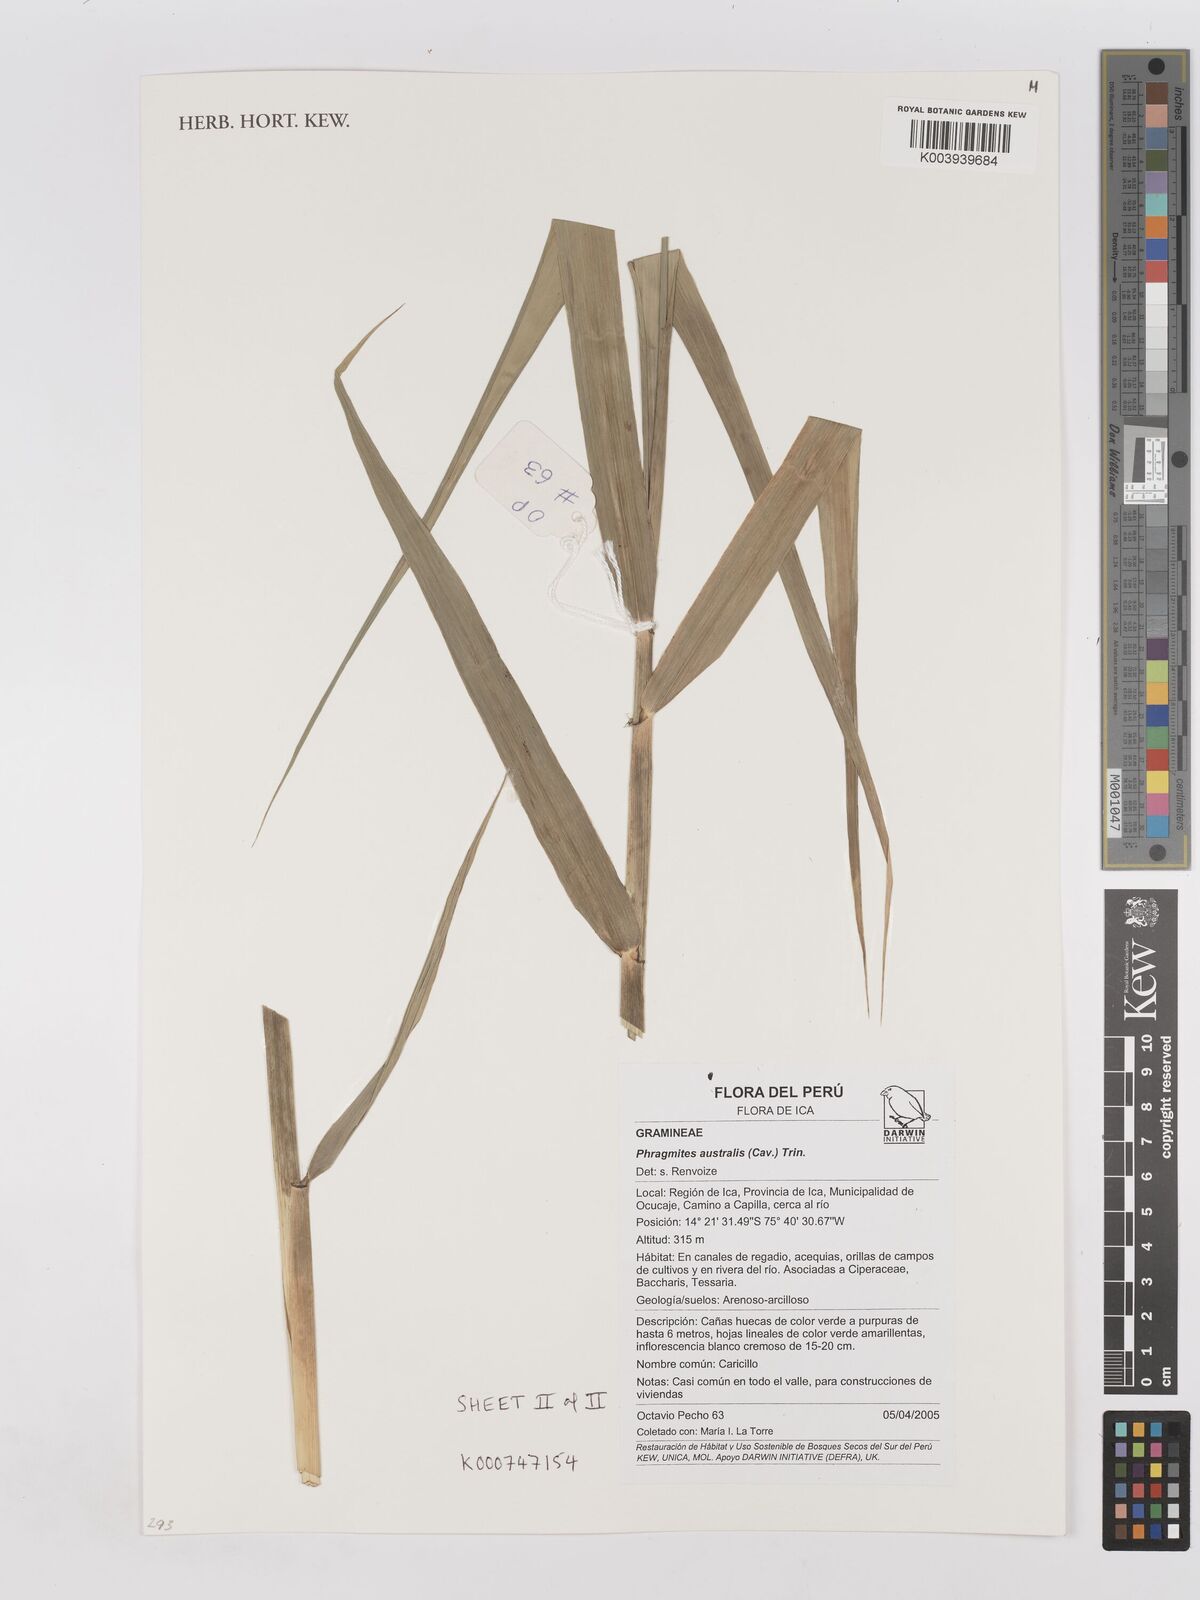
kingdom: Plantae
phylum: Tracheophyta
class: Liliopsida
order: Poales
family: Poaceae
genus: Phragmites
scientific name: Phragmites australis
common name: Common reed
